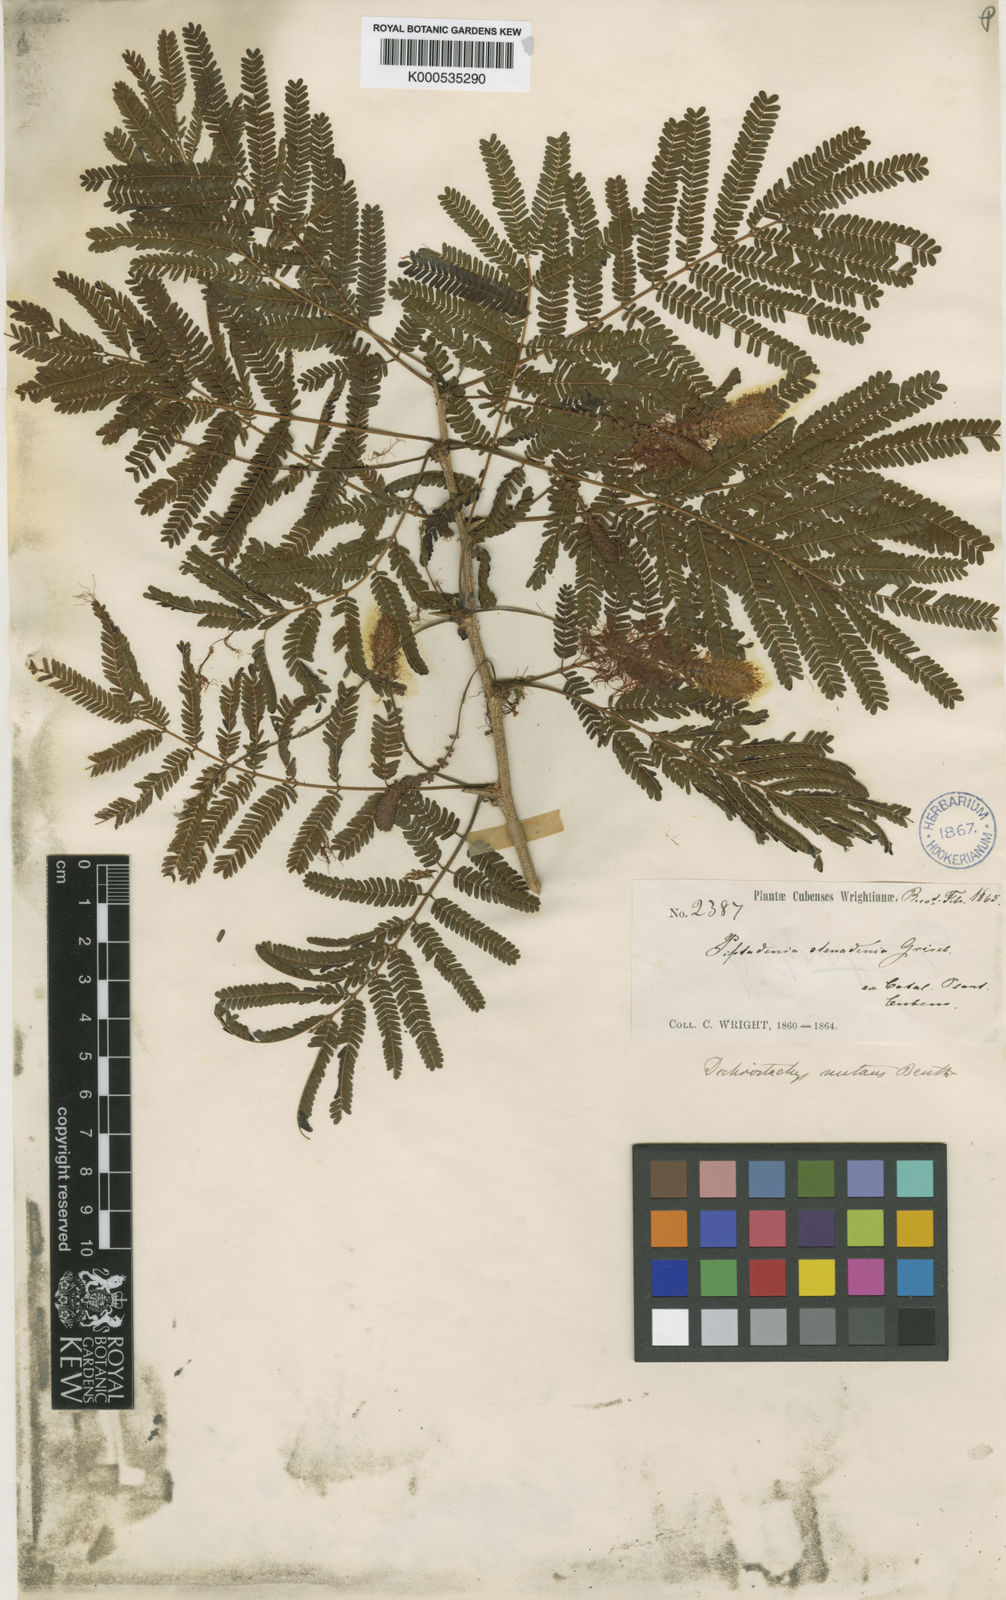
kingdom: Plantae
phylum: Tracheophyta
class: Magnoliopsida
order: Fabales
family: Fabaceae
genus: Dichrostachys
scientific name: Dichrostachys cinerea
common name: Sicklebush
